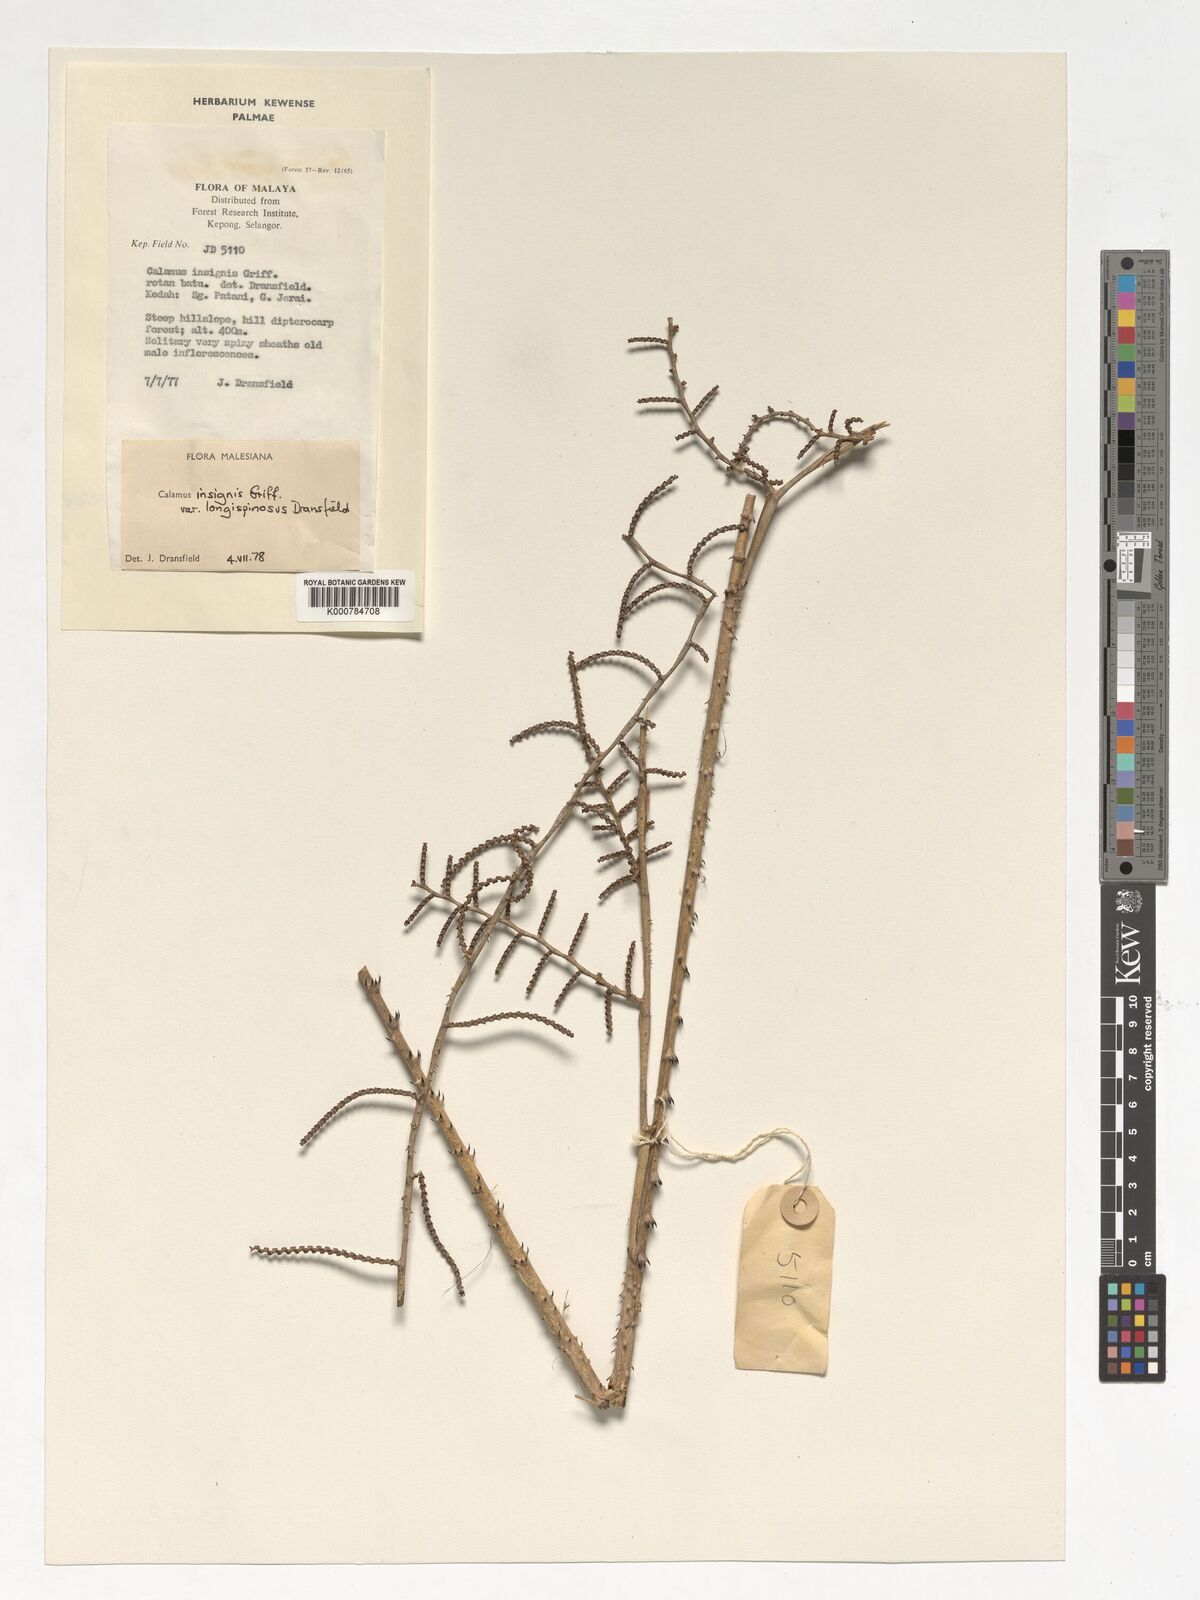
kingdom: Plantae
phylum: Tracheophyta
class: Liliopsida
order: Arecales
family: Arecaceae
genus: Calamus
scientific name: Calamus longiusculus
